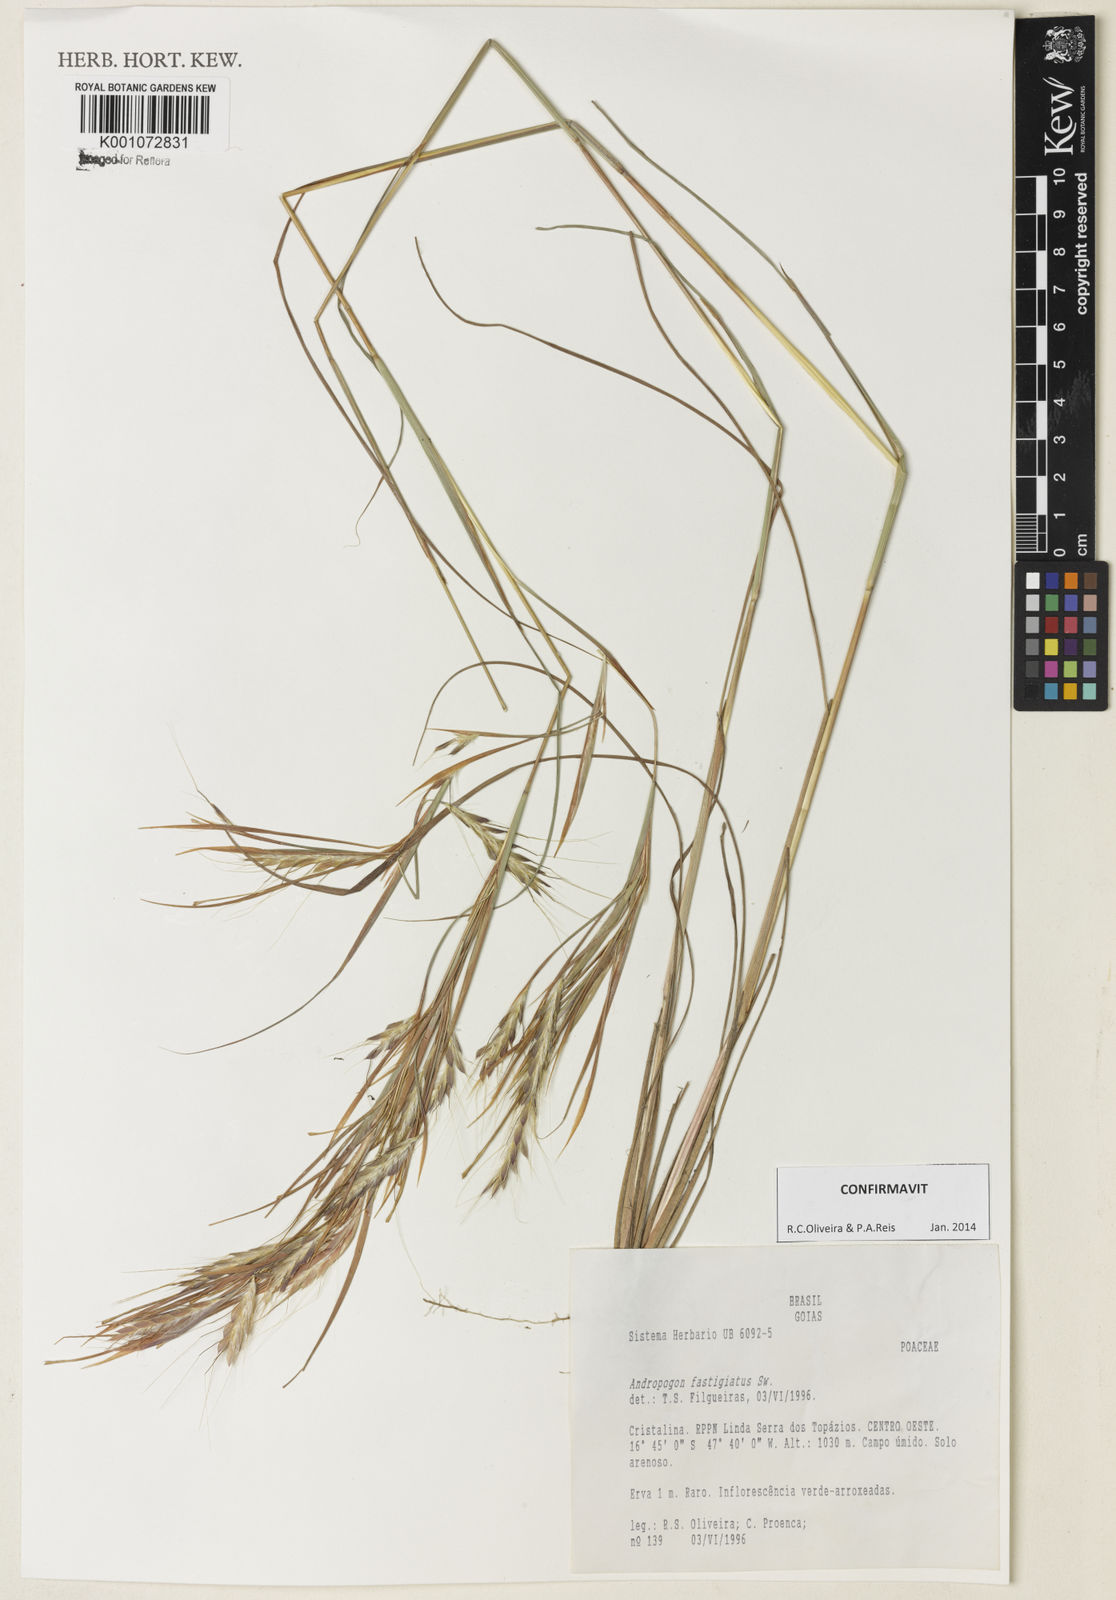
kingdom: Plantae
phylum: Tracheophyta
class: Liliopsida
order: Poales
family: Poaceae
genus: Diectomis
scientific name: Diectomis fastigiata
